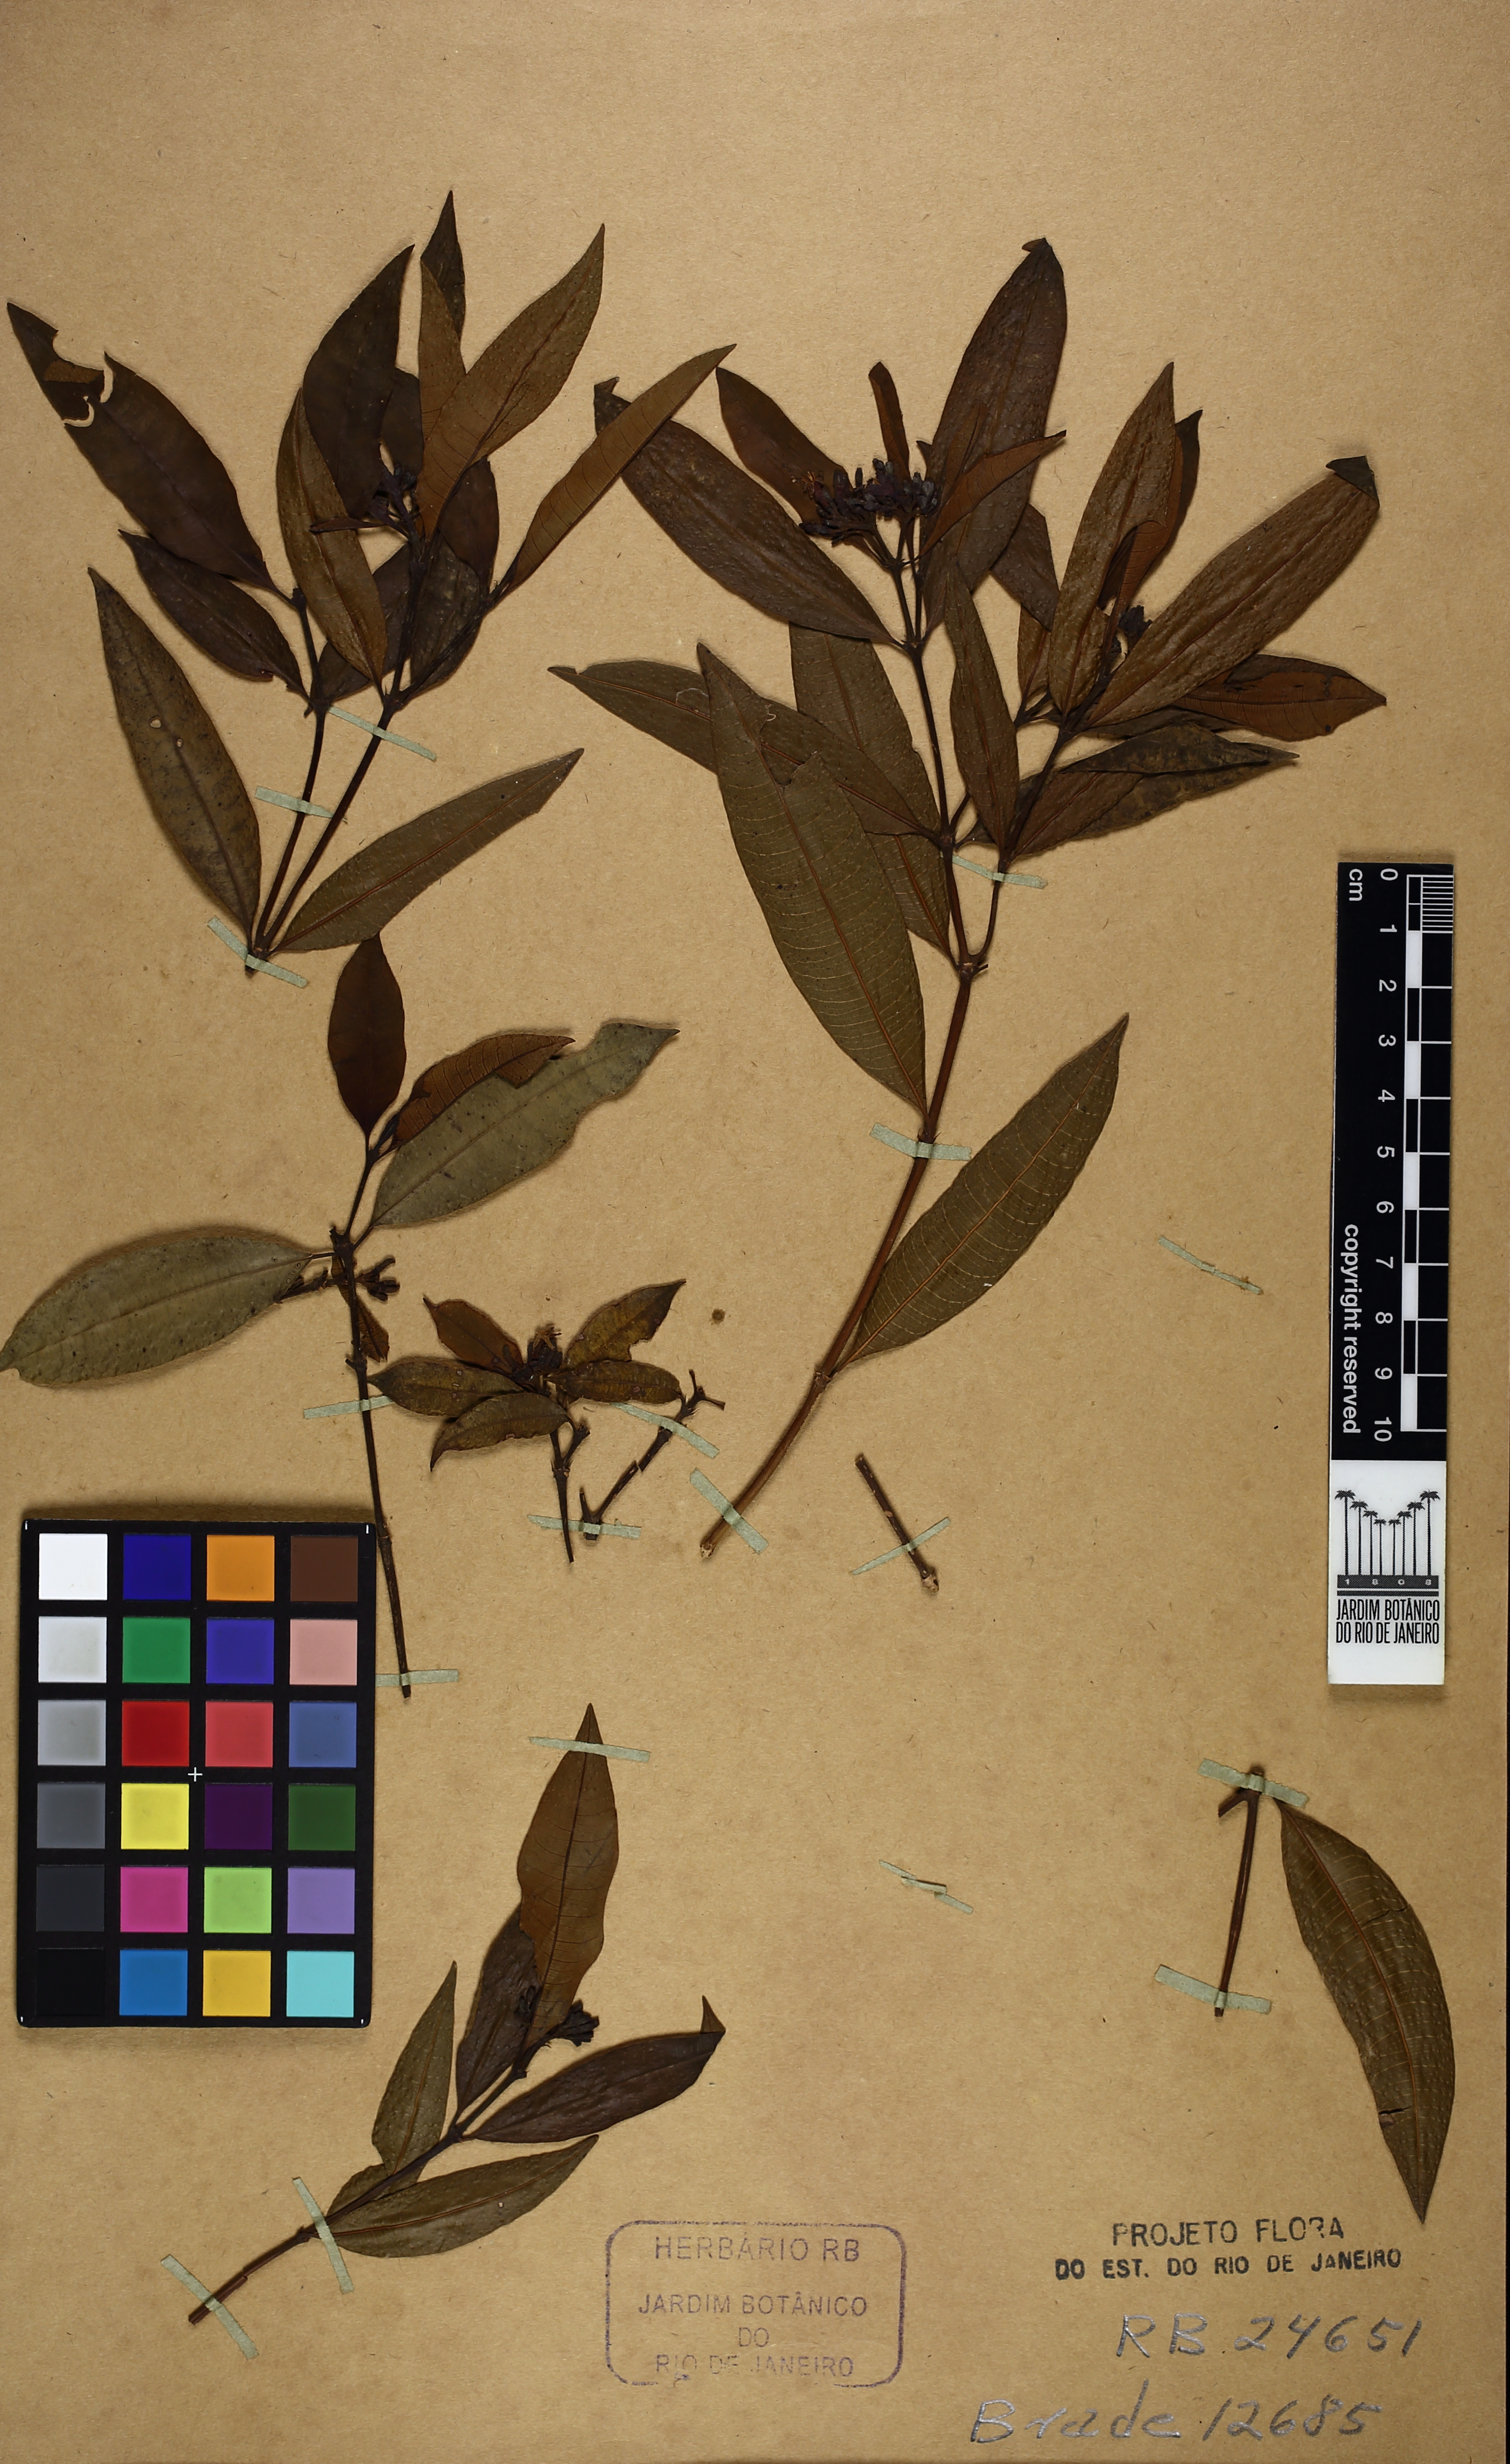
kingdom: Plantae
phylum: Tracheophyta
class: Magnoliopsida
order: Gentianales
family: Rubiaceae
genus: Psychotria
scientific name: Psychotria pentaphtosa
